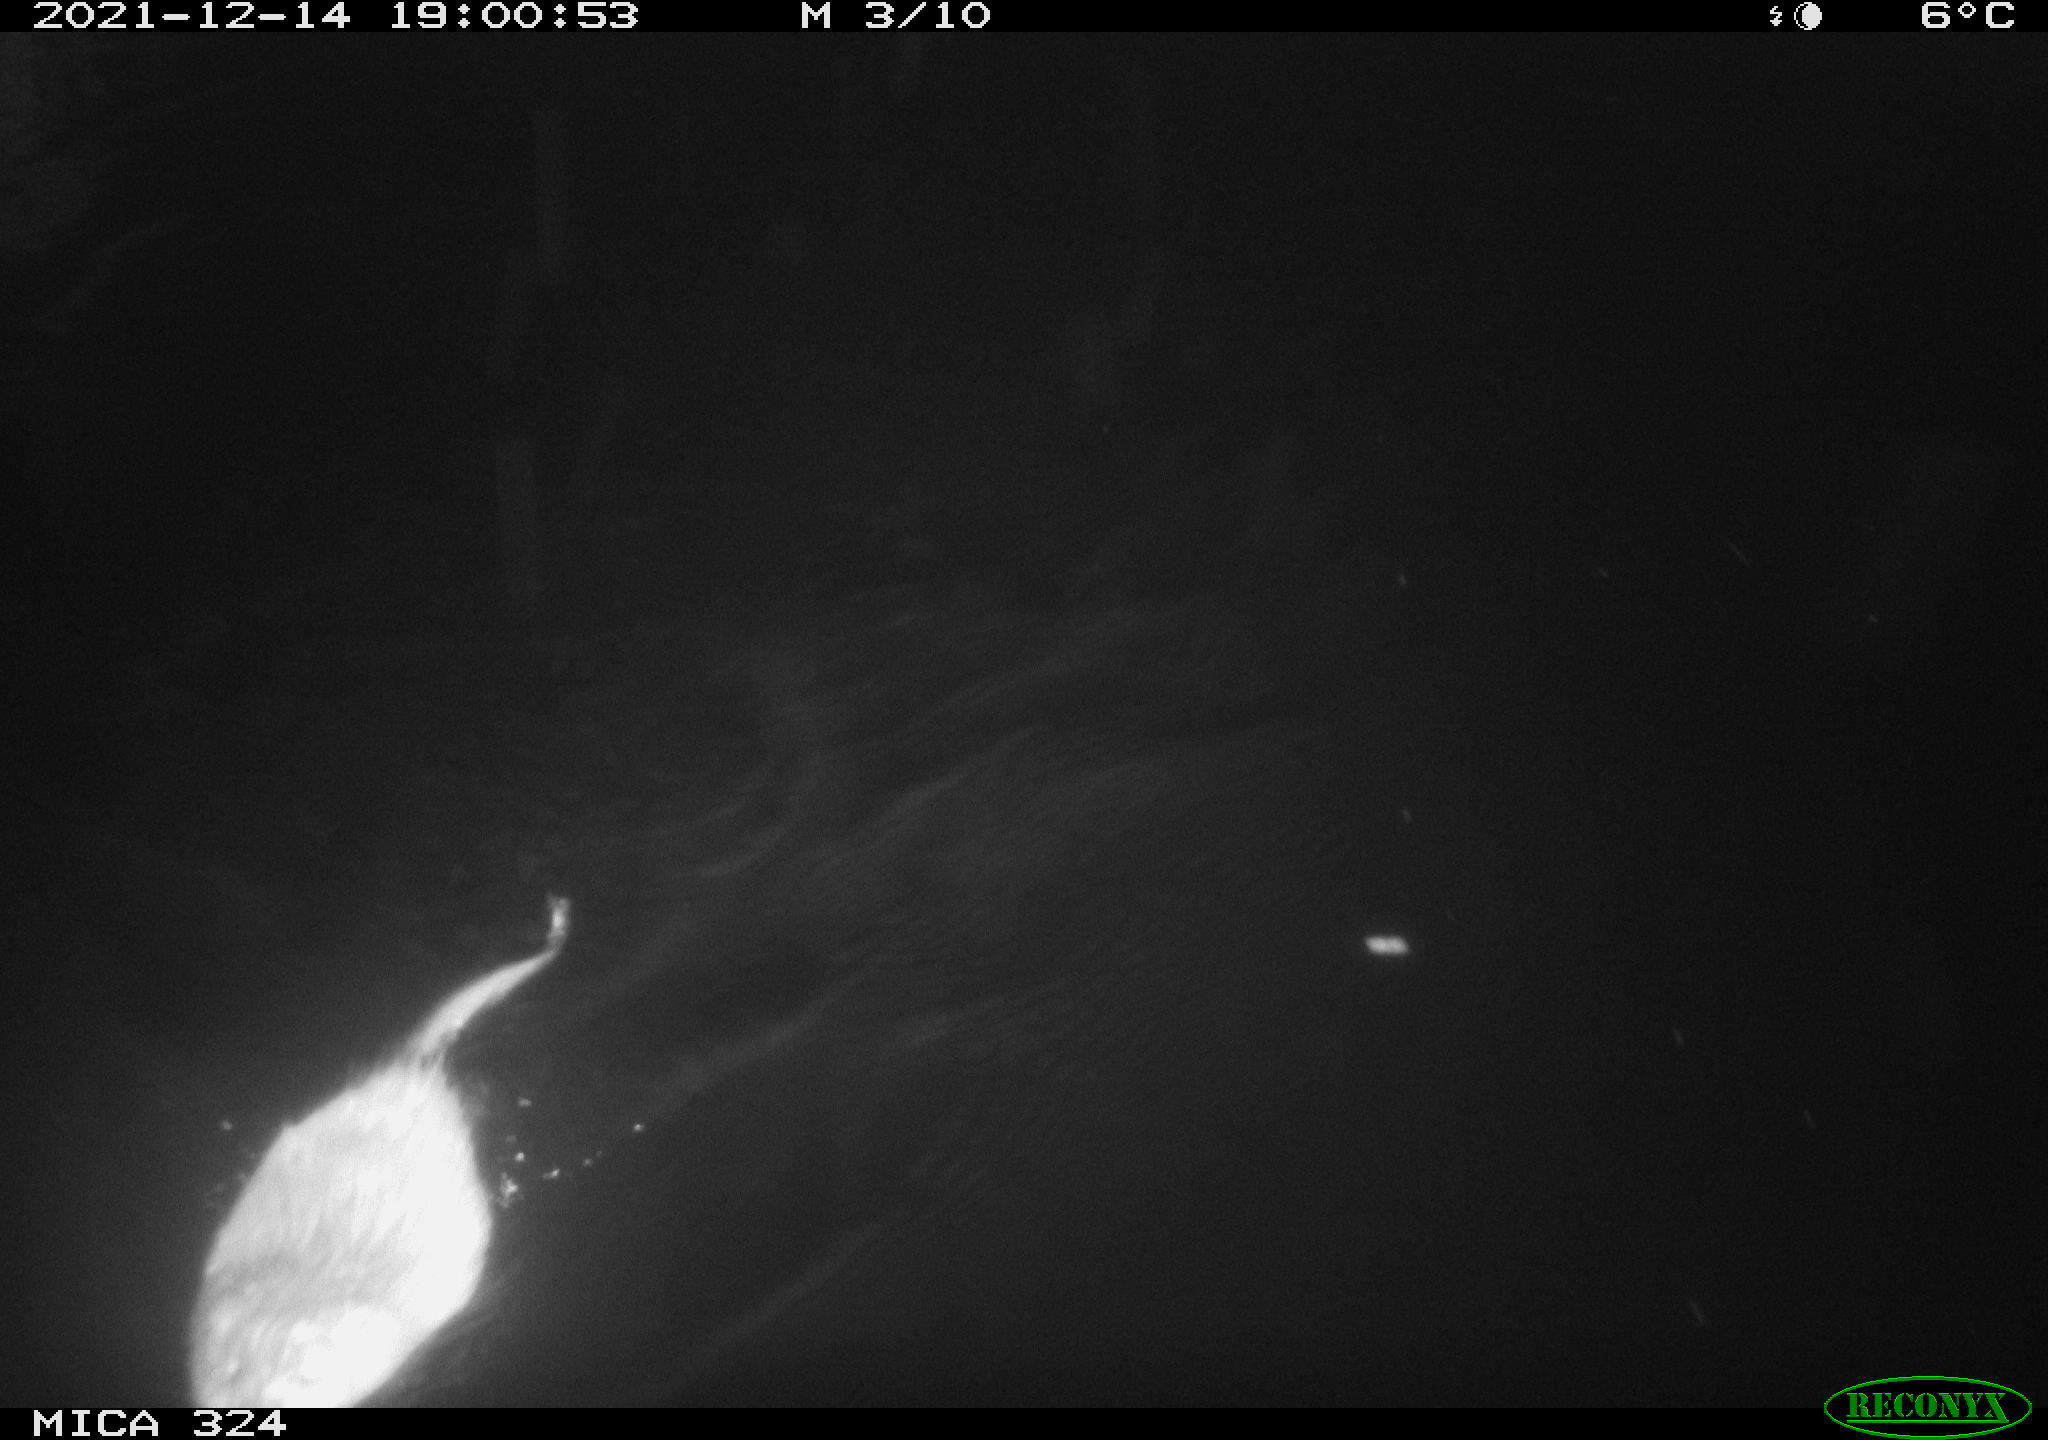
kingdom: Animalia
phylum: Chordata
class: Mammalia
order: Rodentia
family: Cricetidae
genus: Ondatra
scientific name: Ondatra zibethicus
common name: Muskrat
